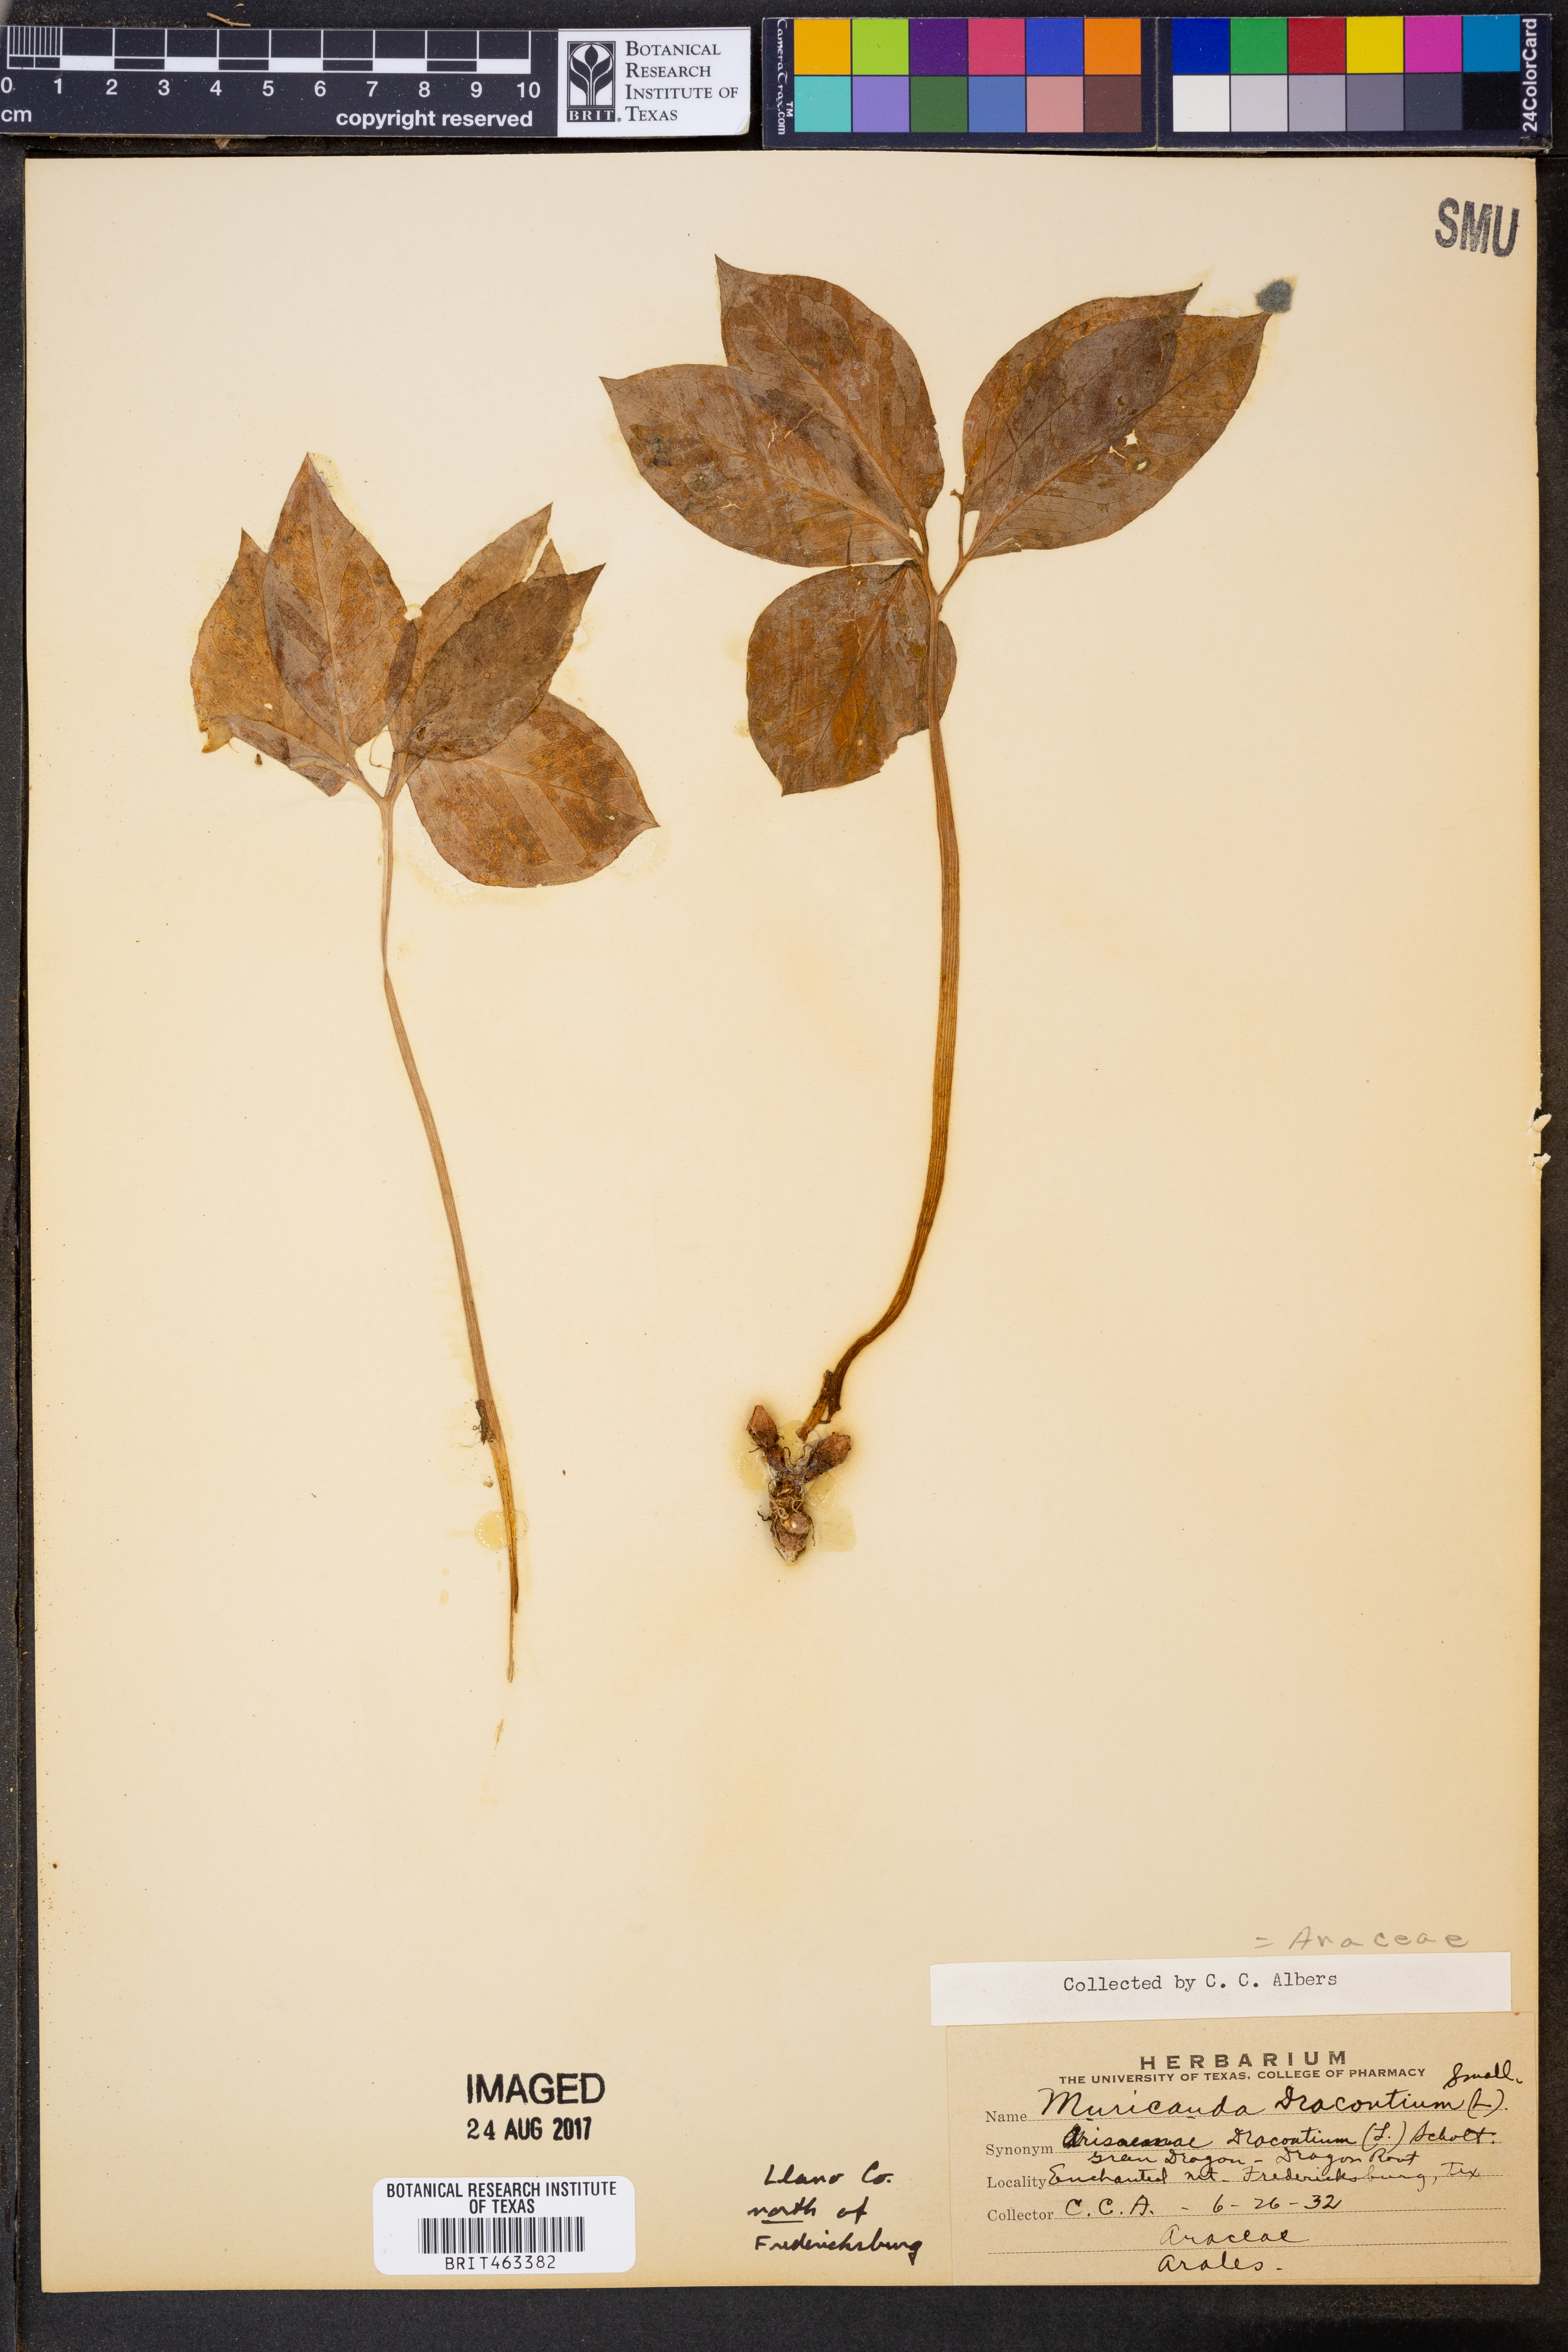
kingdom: Plantae
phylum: Tracheophyta
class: Liliopsida
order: Alismatales
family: Araceae
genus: Arisaema
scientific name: Arisaema dracontium
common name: Dragon-arum
